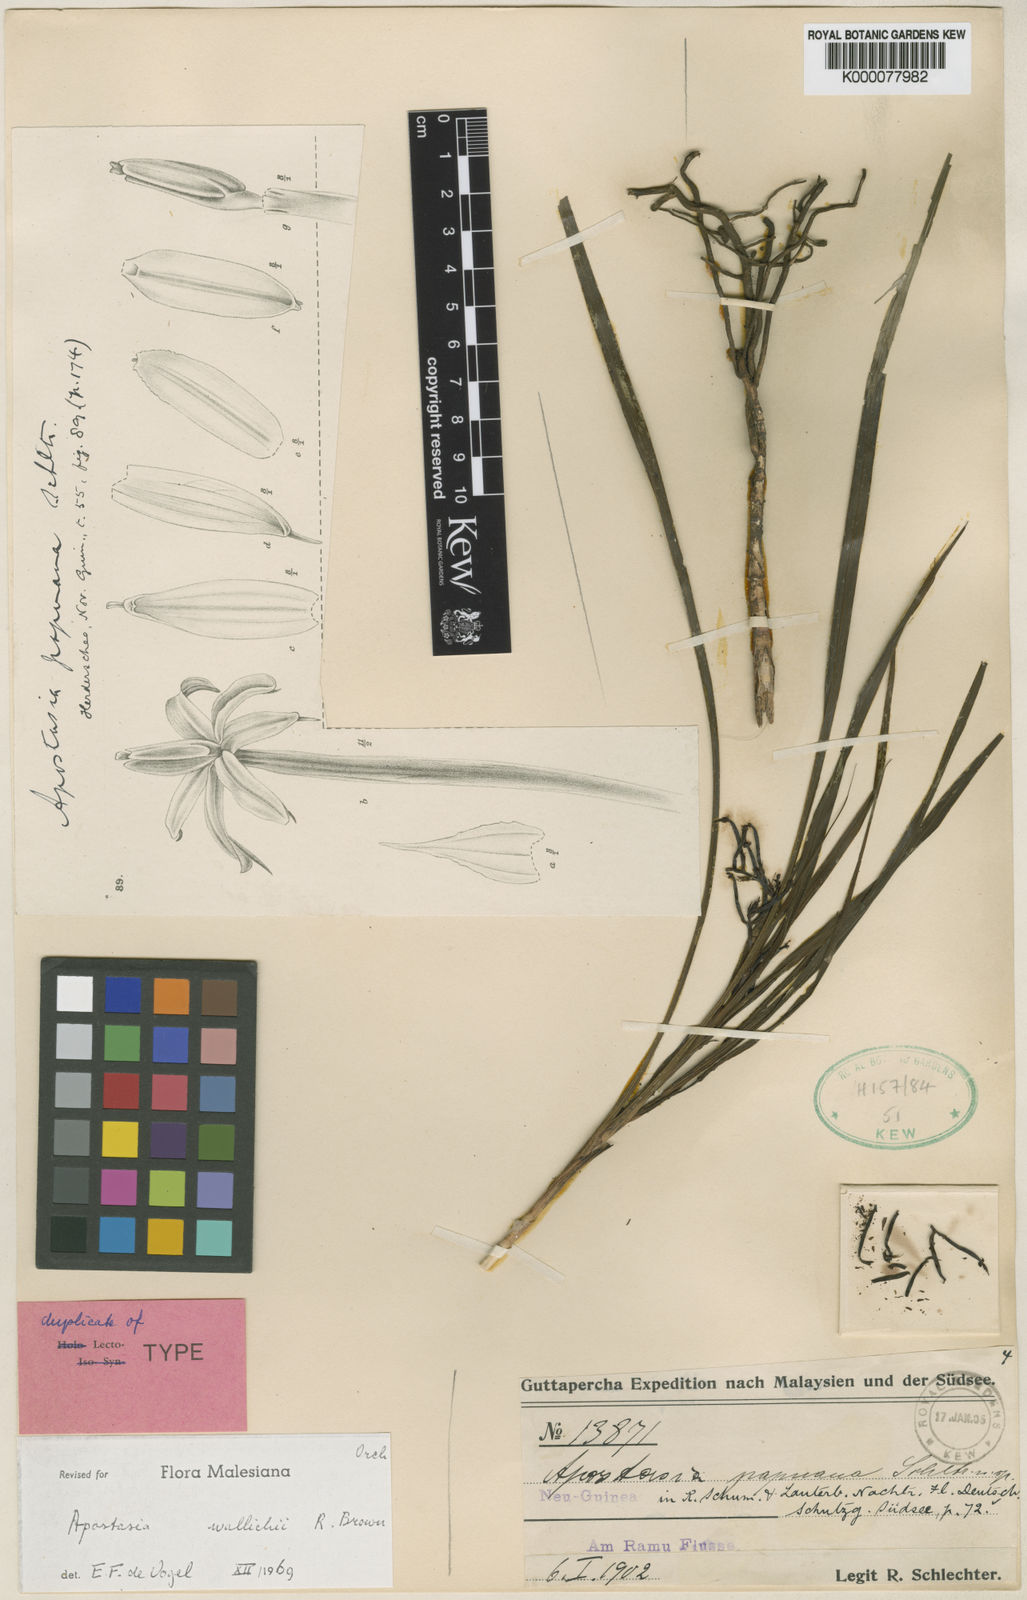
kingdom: Plantae
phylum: Tracheophyta
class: Liliopsida
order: Asparagales
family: Orchidaceae
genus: Apostasia
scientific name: Apostasia wallichii
